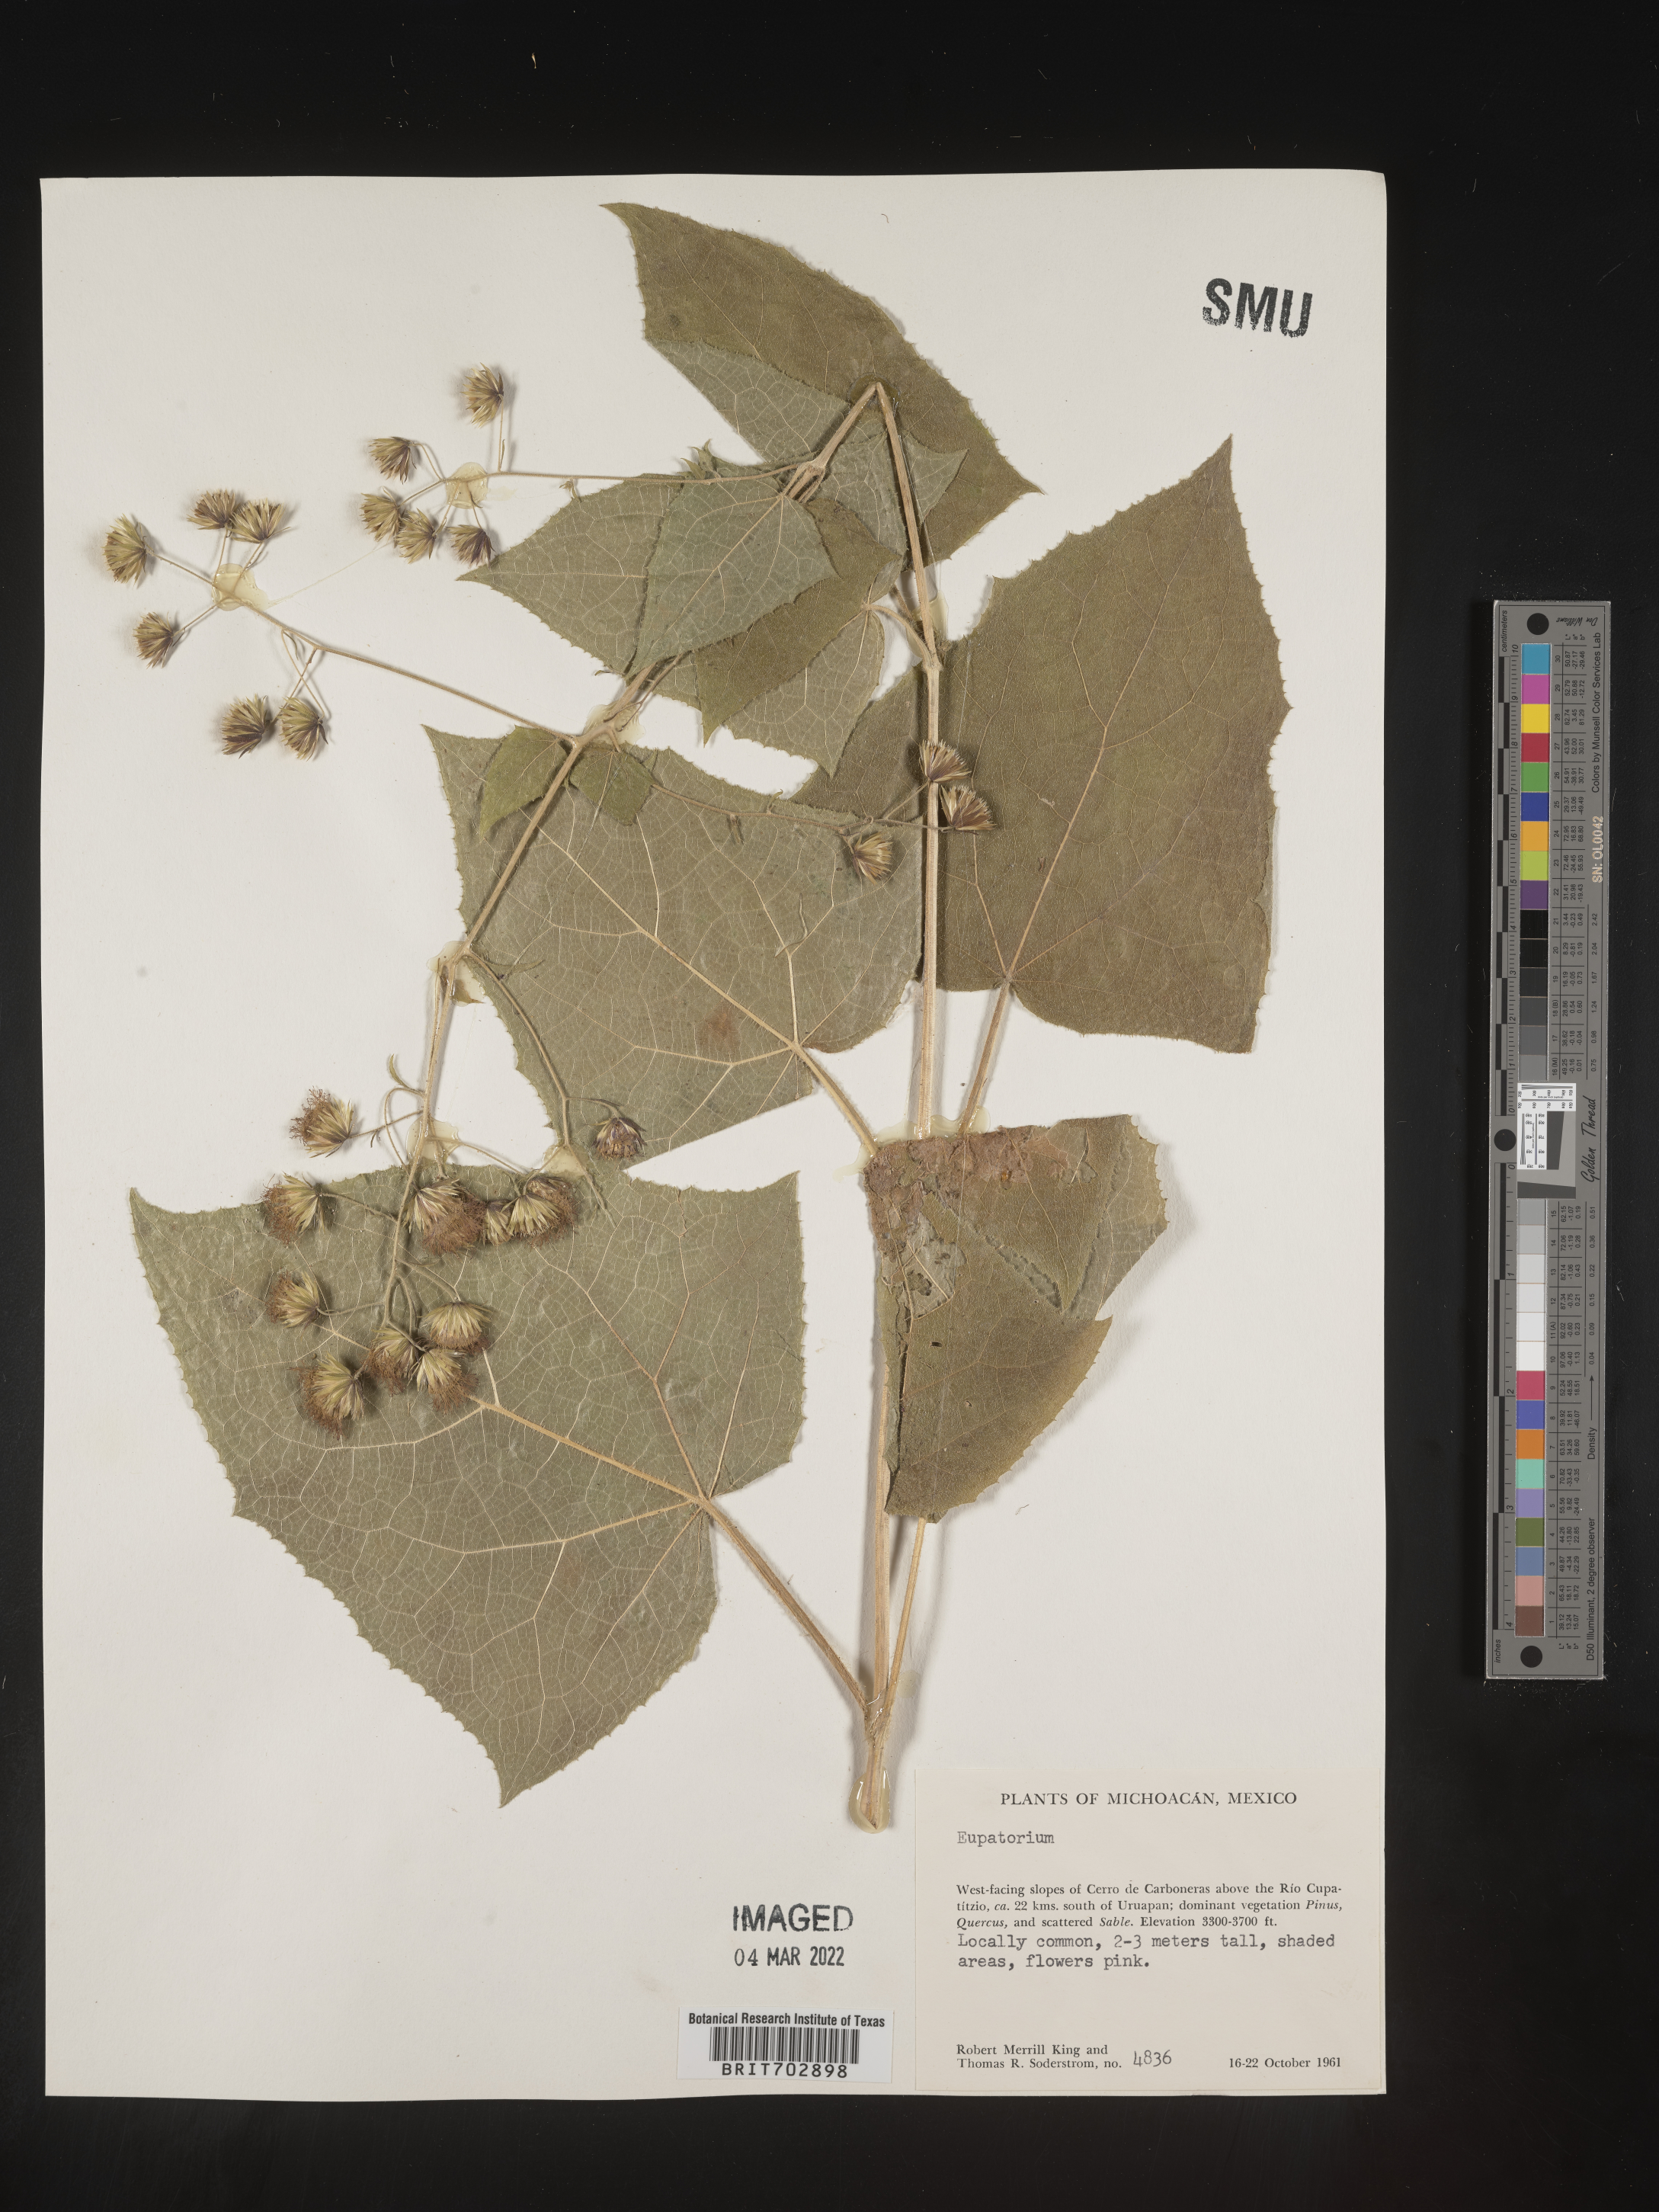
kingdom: Plantae
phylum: Tracheophyta
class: Magnoliopsida
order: Asterales
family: Asteraceae
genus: Eupatorium
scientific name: Eupatorium
